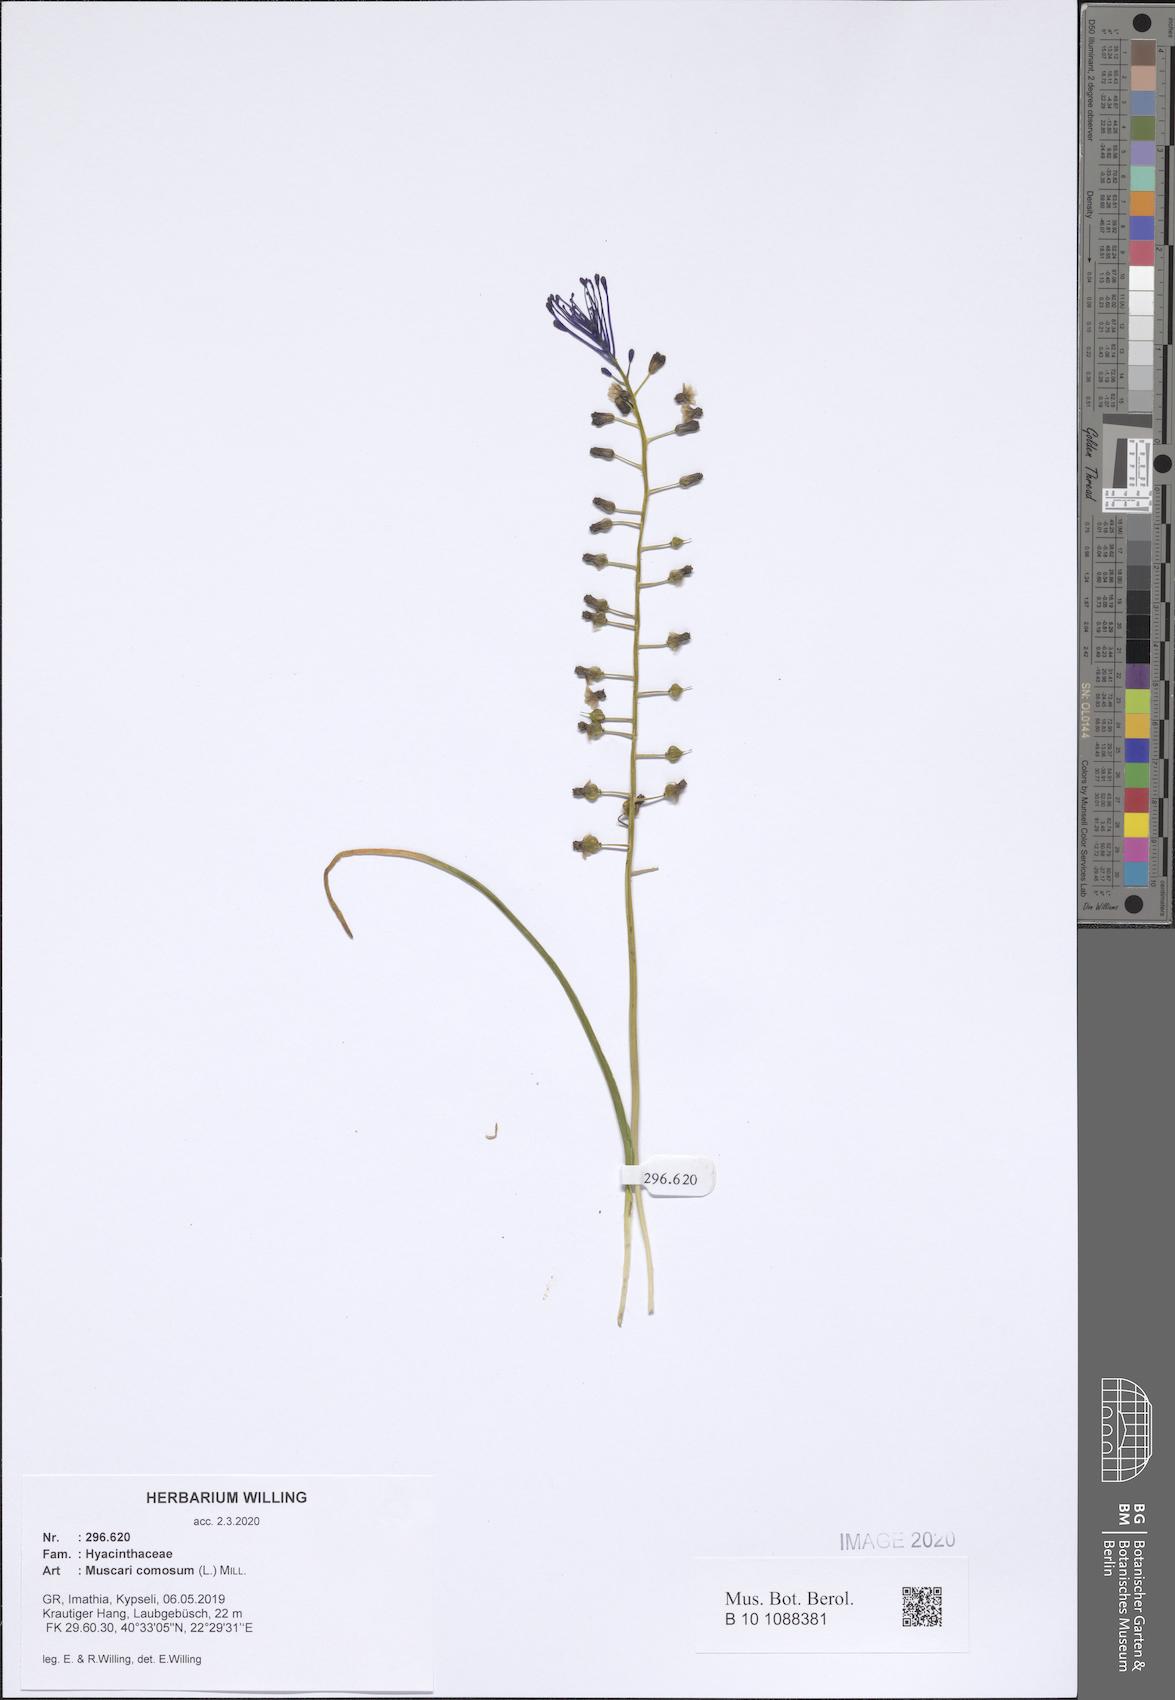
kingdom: Plantae
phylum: Tracheophyta
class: Liliopsida
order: Asparagales
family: Asparagaceae
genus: Muscari
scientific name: Muscari comosum
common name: Tassel hyacinth
